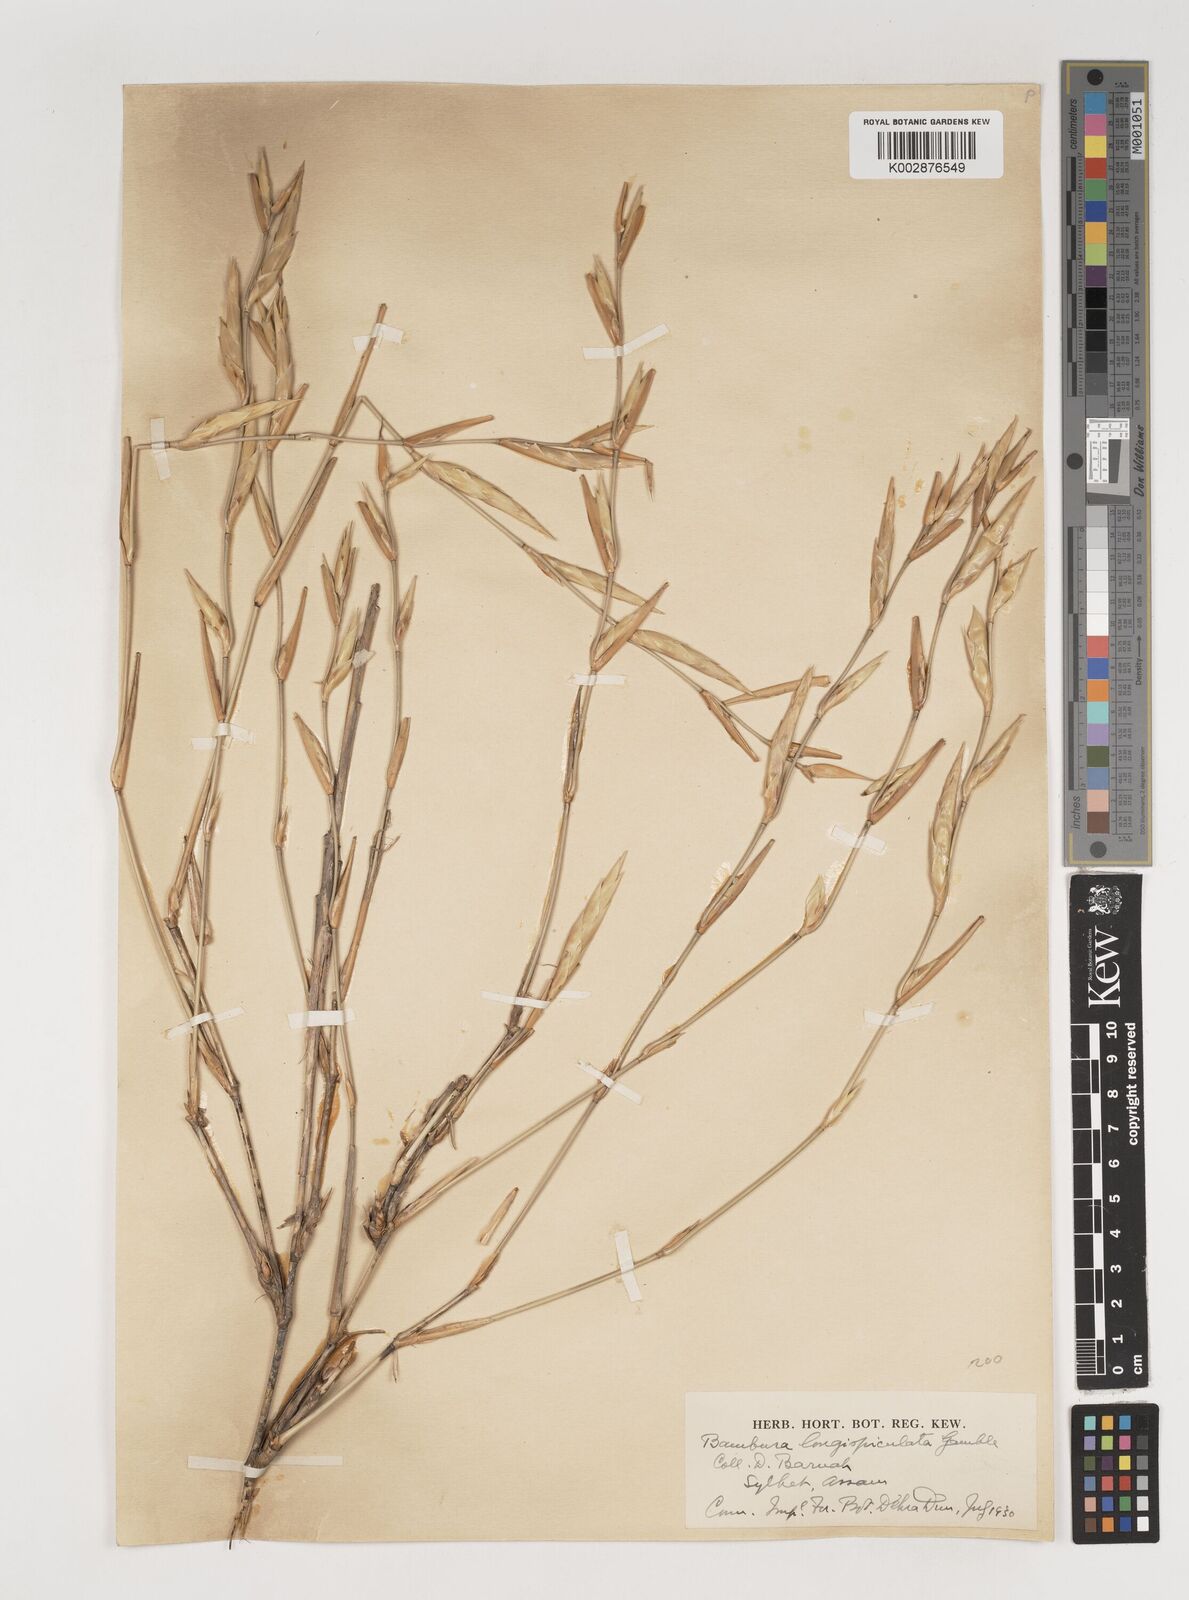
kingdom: Plantae
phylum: Tracheophyta
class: Liliopsida
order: Poales
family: Poaceae
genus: Bambusa
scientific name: Bambusa longispiculata
